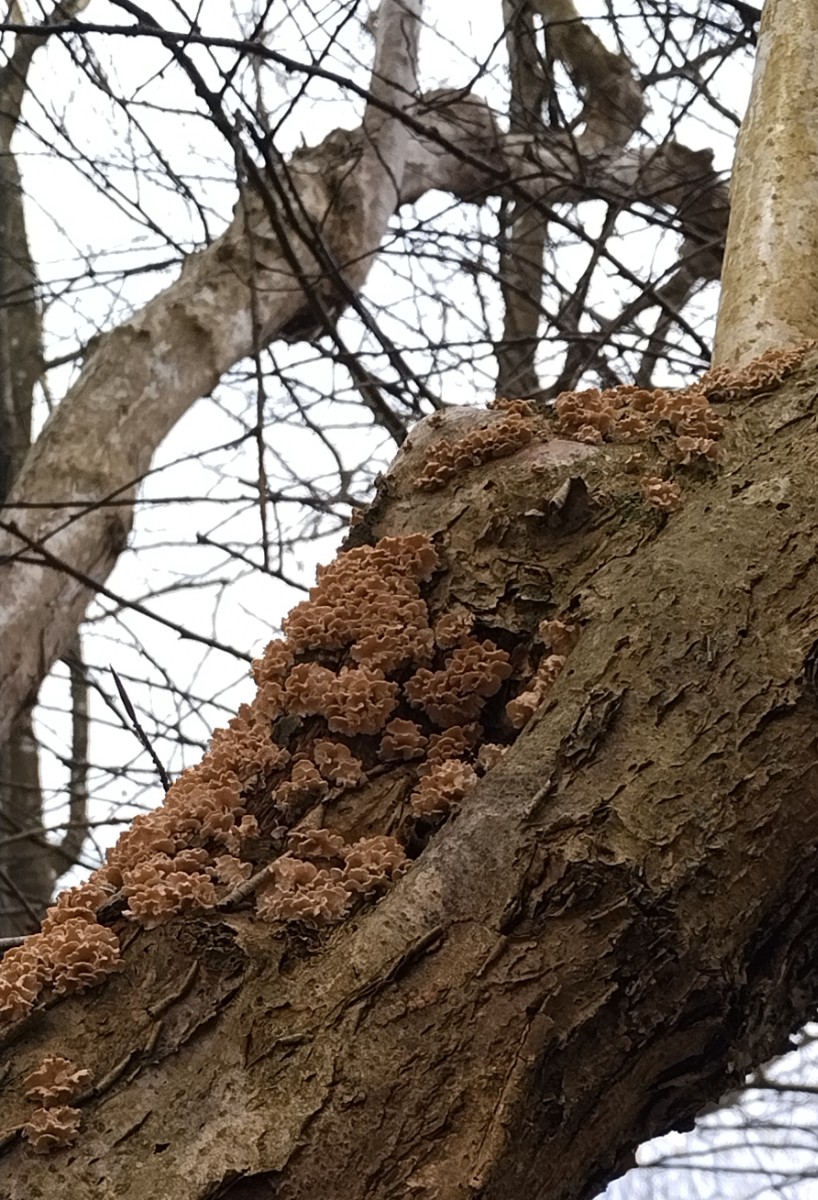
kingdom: Fungi
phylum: Basidiomycota
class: Agaricomycetes
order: Amylocorticiales
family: Amylocorticiaceae
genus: Plicaturopsis
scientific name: Plicaturopsis crispa
